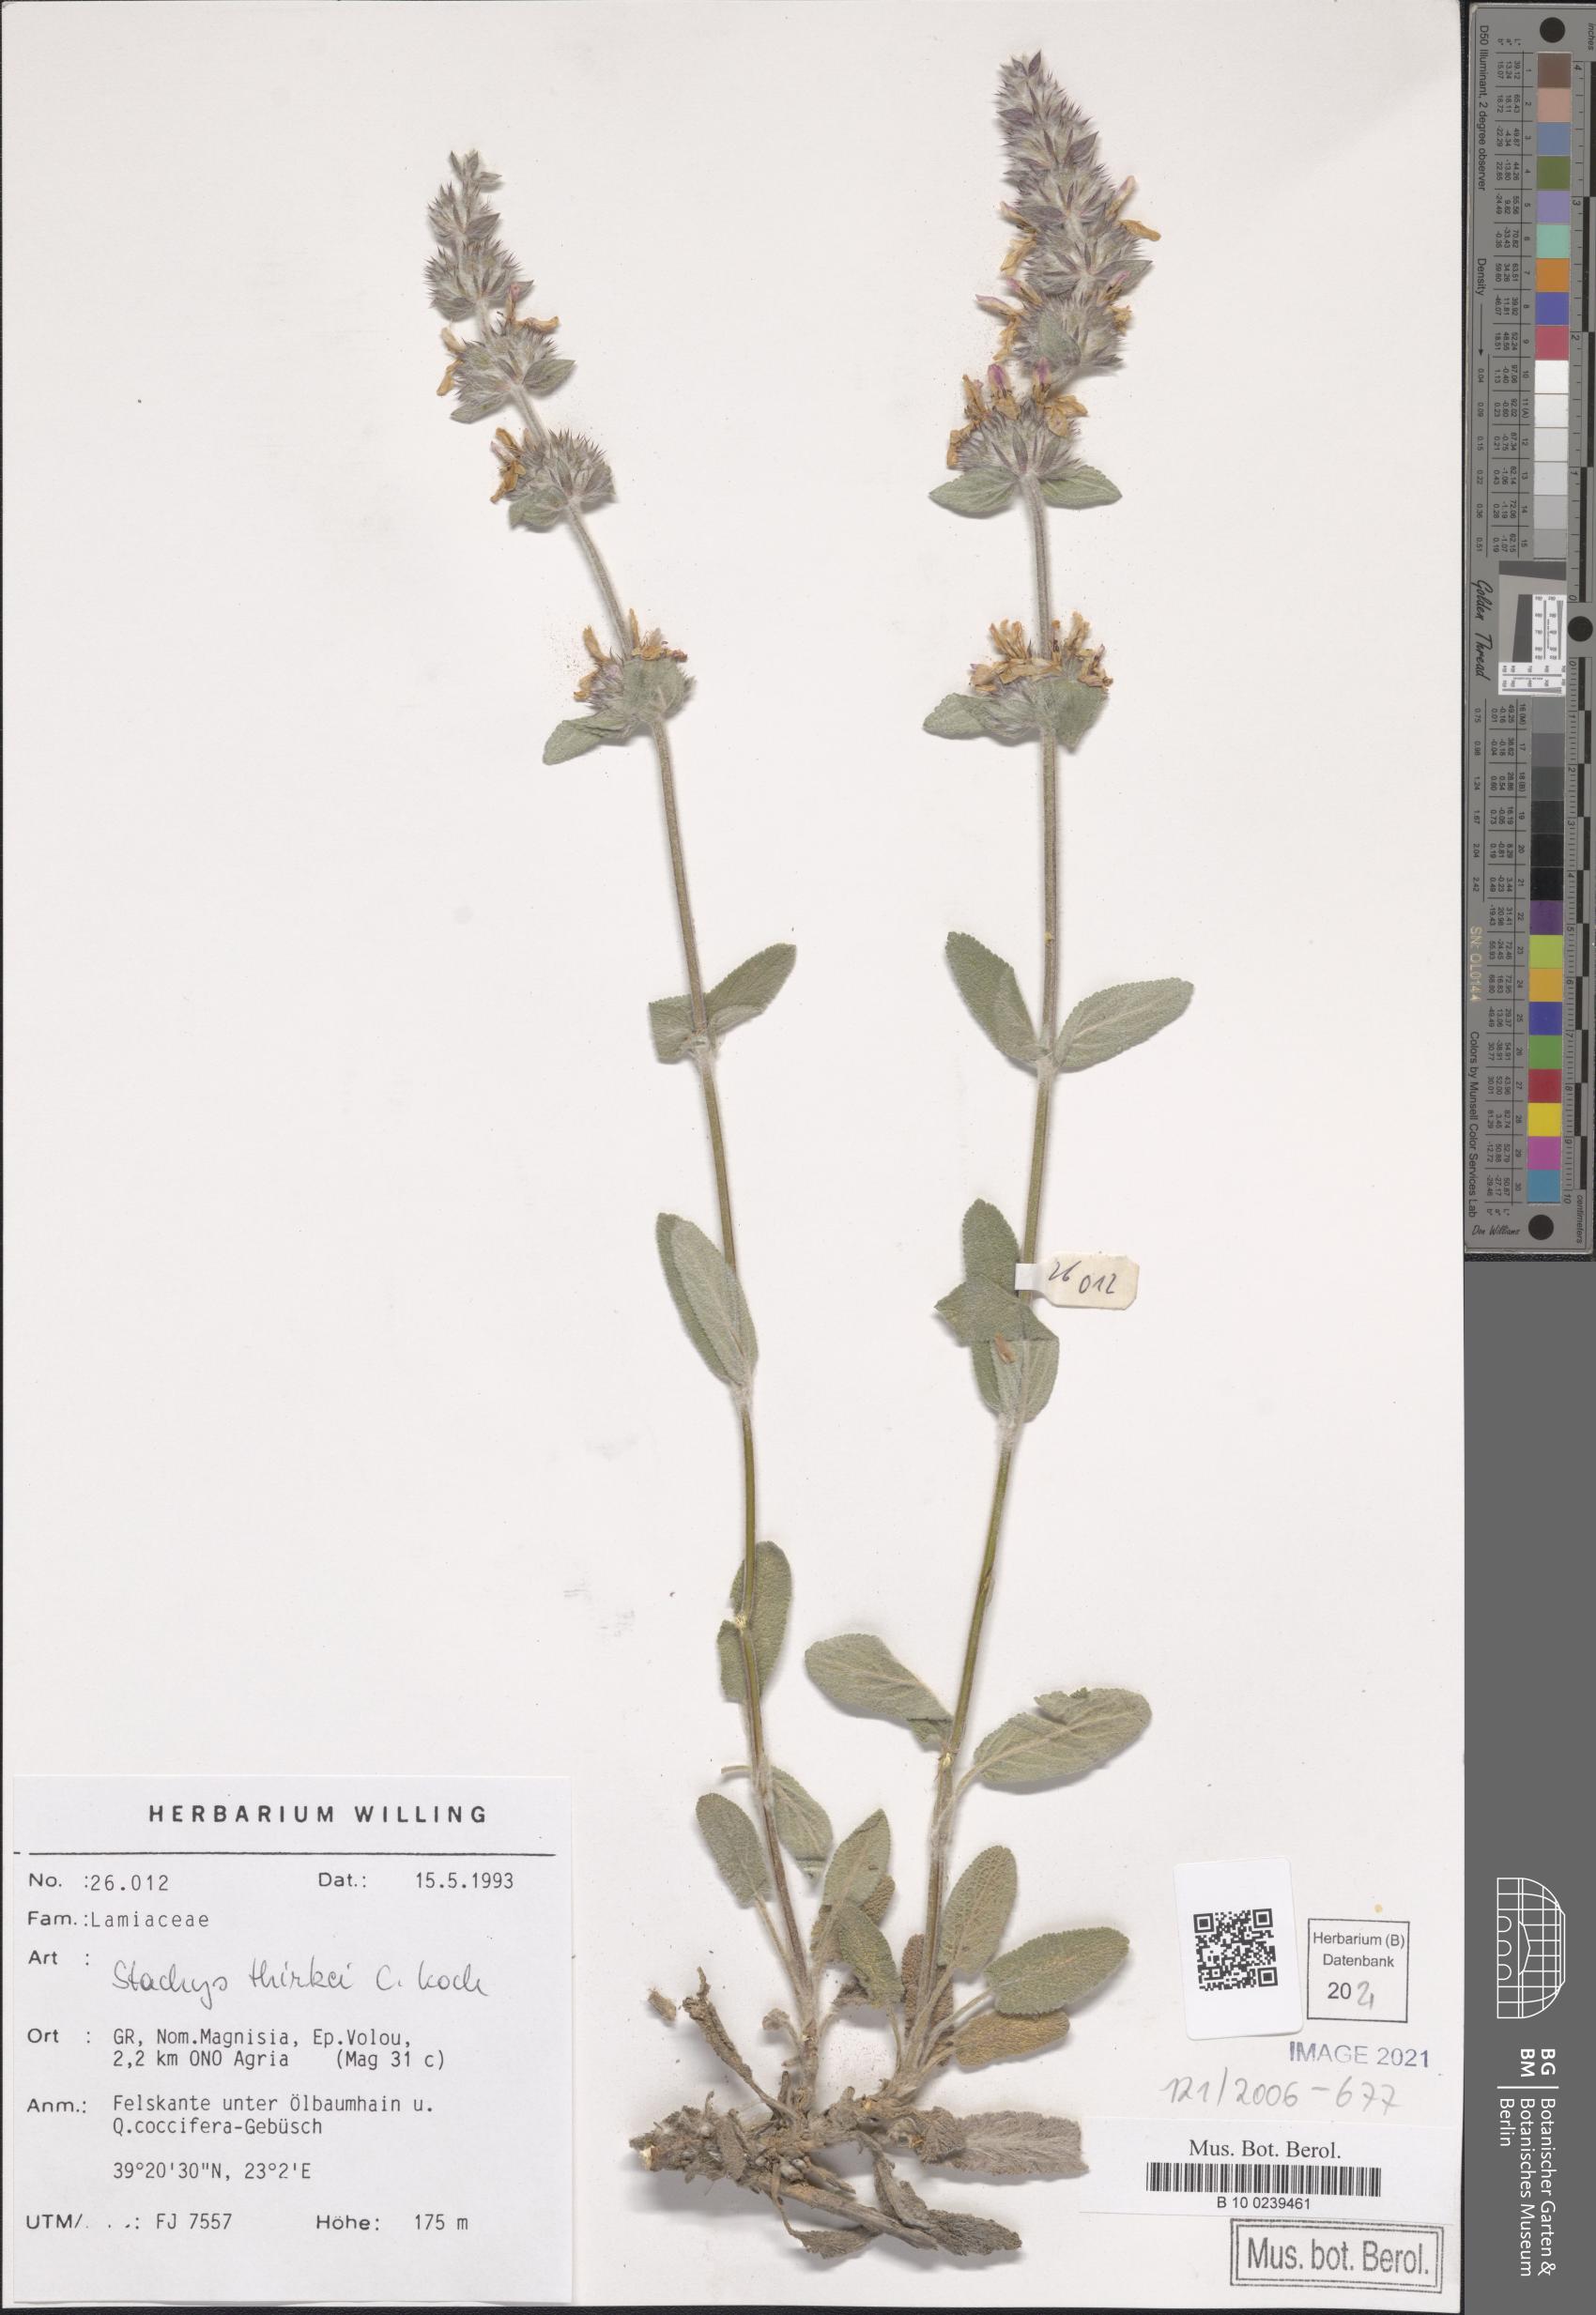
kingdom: Plantae
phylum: Tracheophyta
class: Magnoliopsida
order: Lamiales
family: Lamiaceae
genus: Stachys
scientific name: Stachys thirkei
